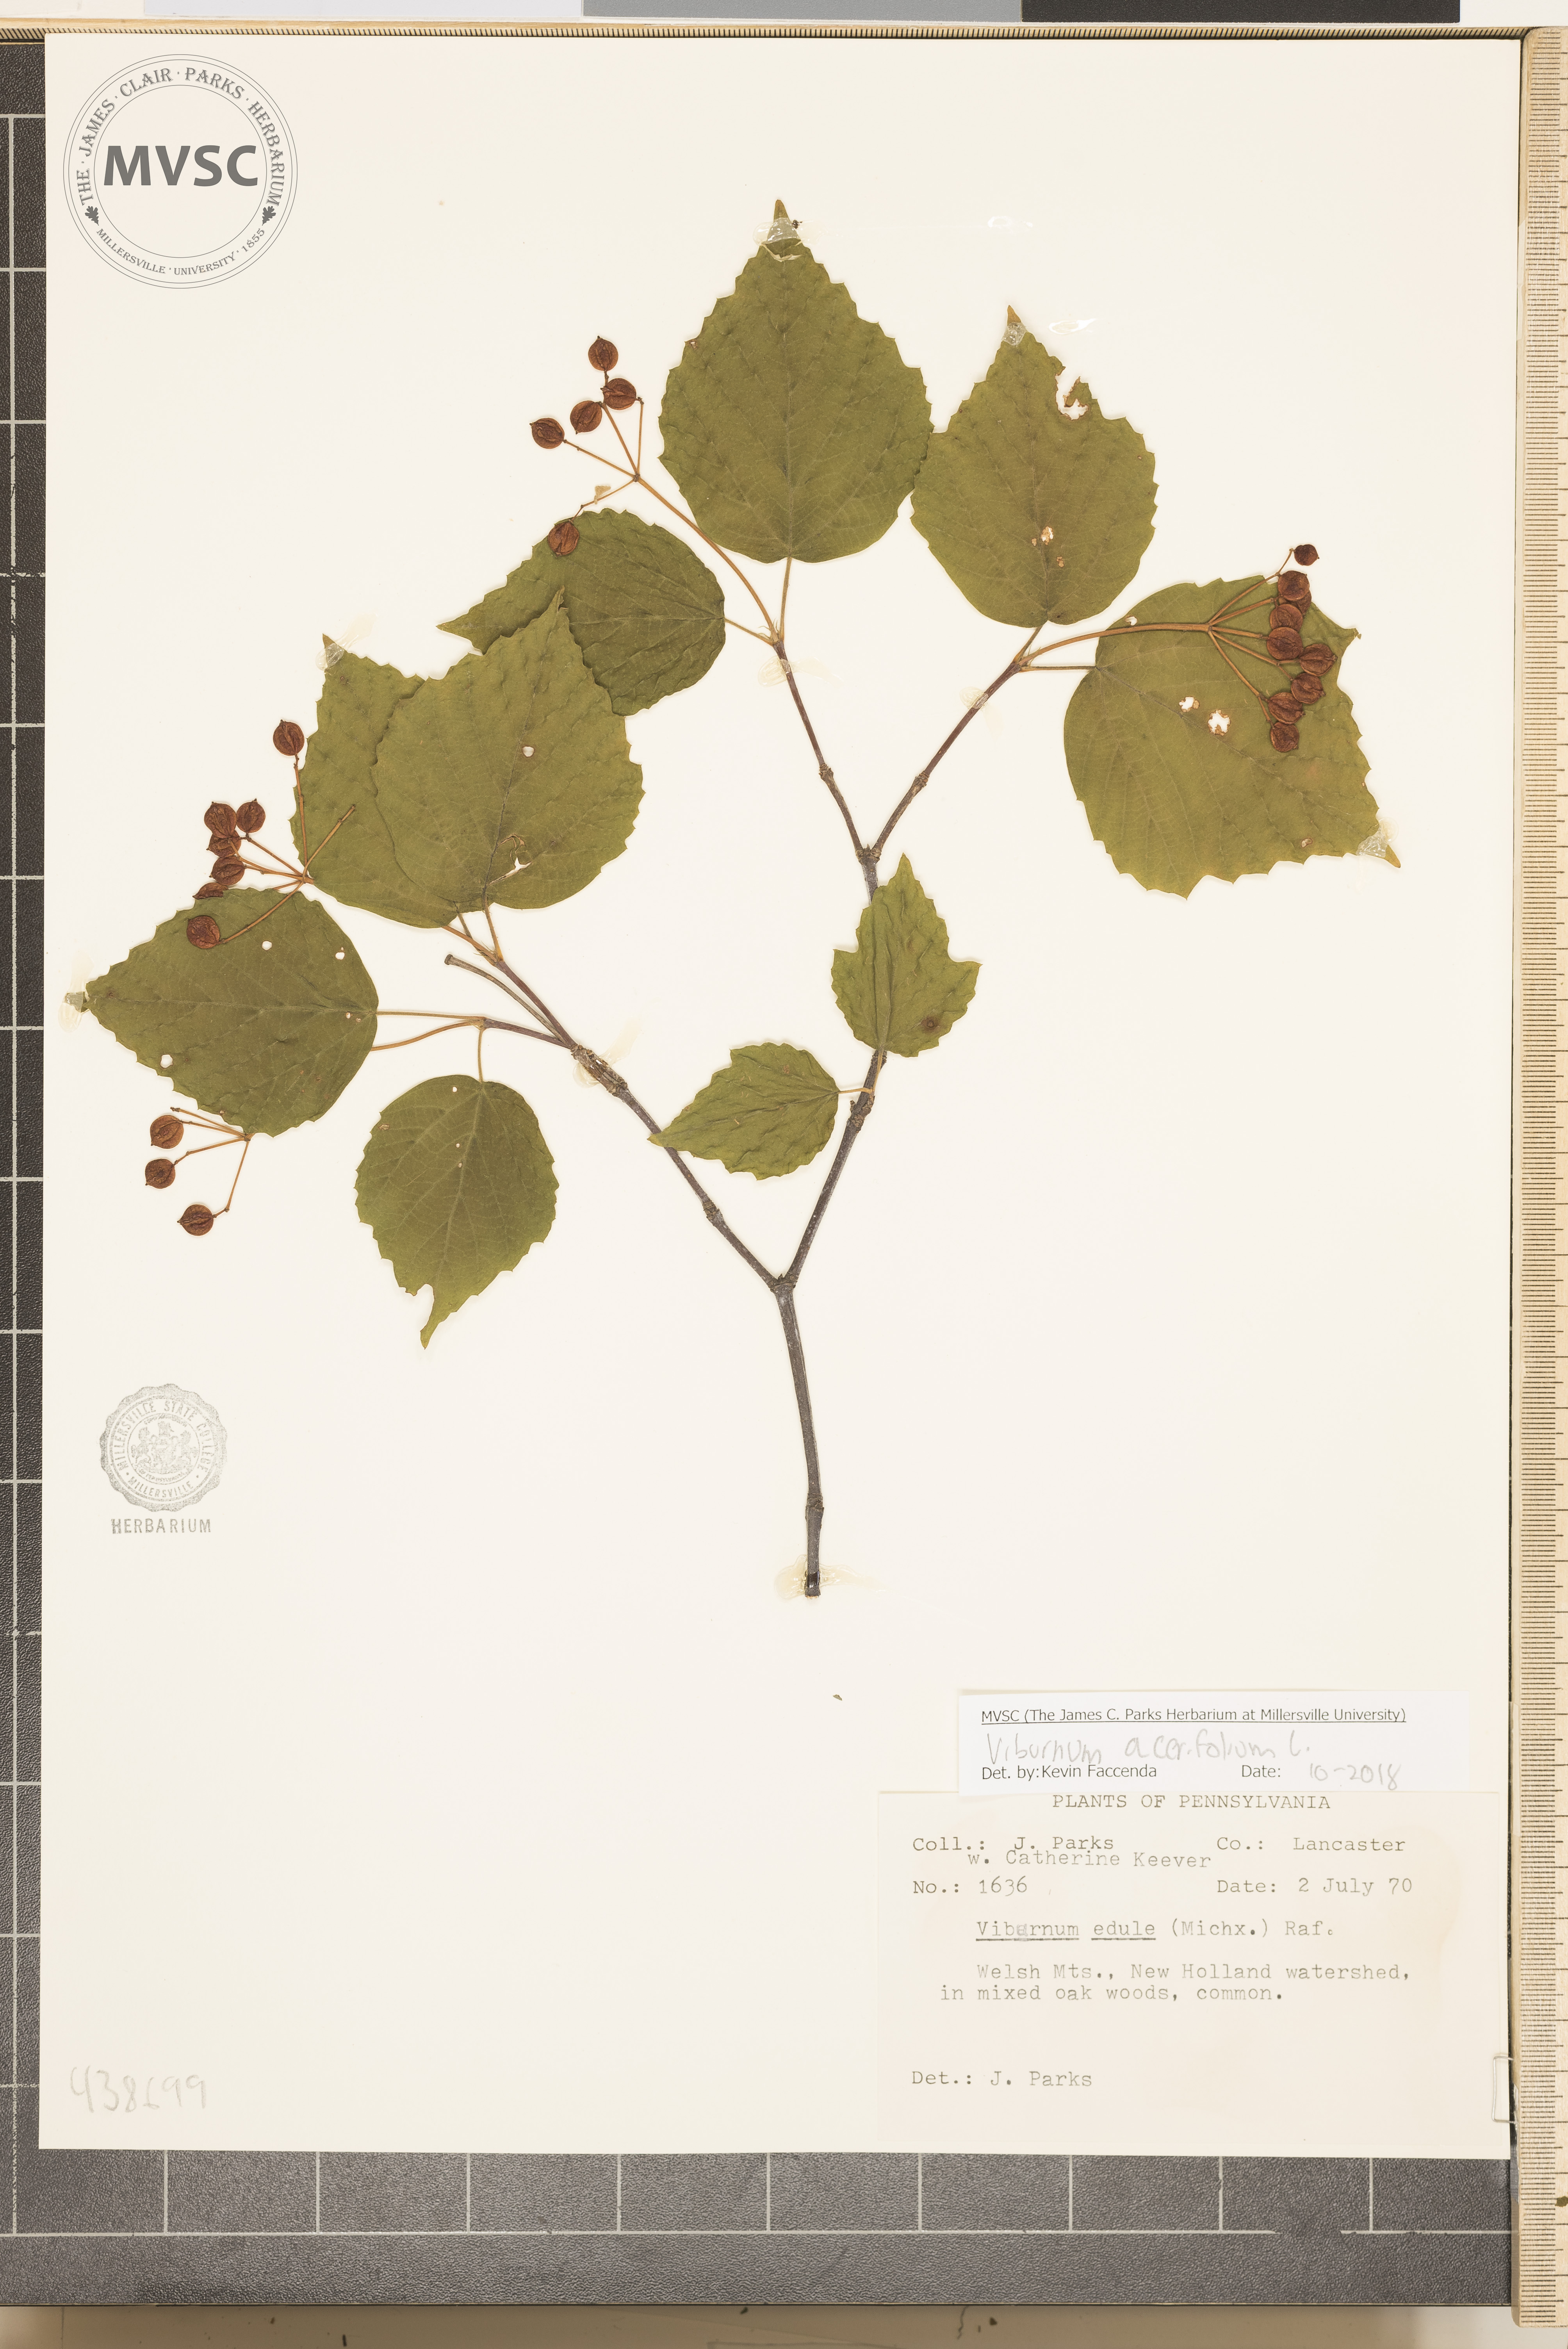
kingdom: Plantae
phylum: Tracheophyta
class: Magnoliopsida
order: Dipsacales
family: Viburnaceae
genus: Viburnum
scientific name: Viburnum acerifolium
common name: Dockmackie
